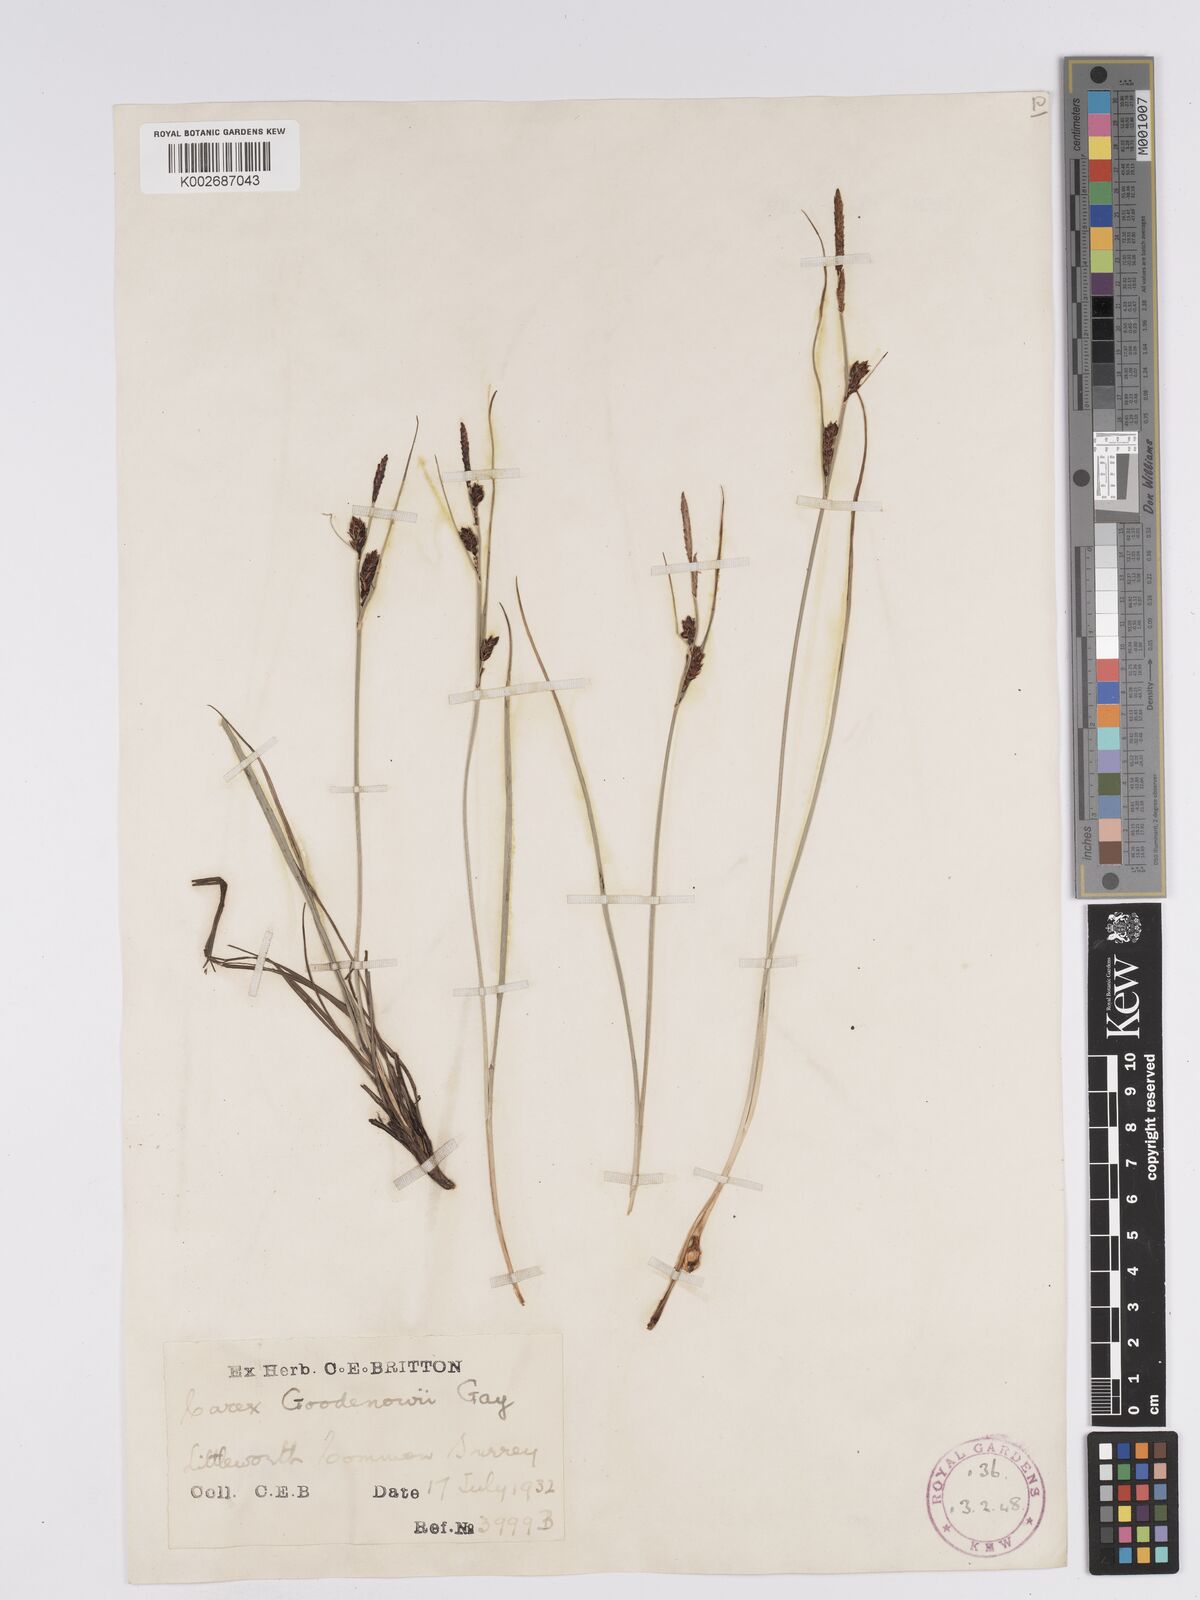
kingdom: Plantae
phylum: Tracheophyta
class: Liliopsida
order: Poales
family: Cyperaceae
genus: Carex
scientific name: Carex nigra
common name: Common sedge
